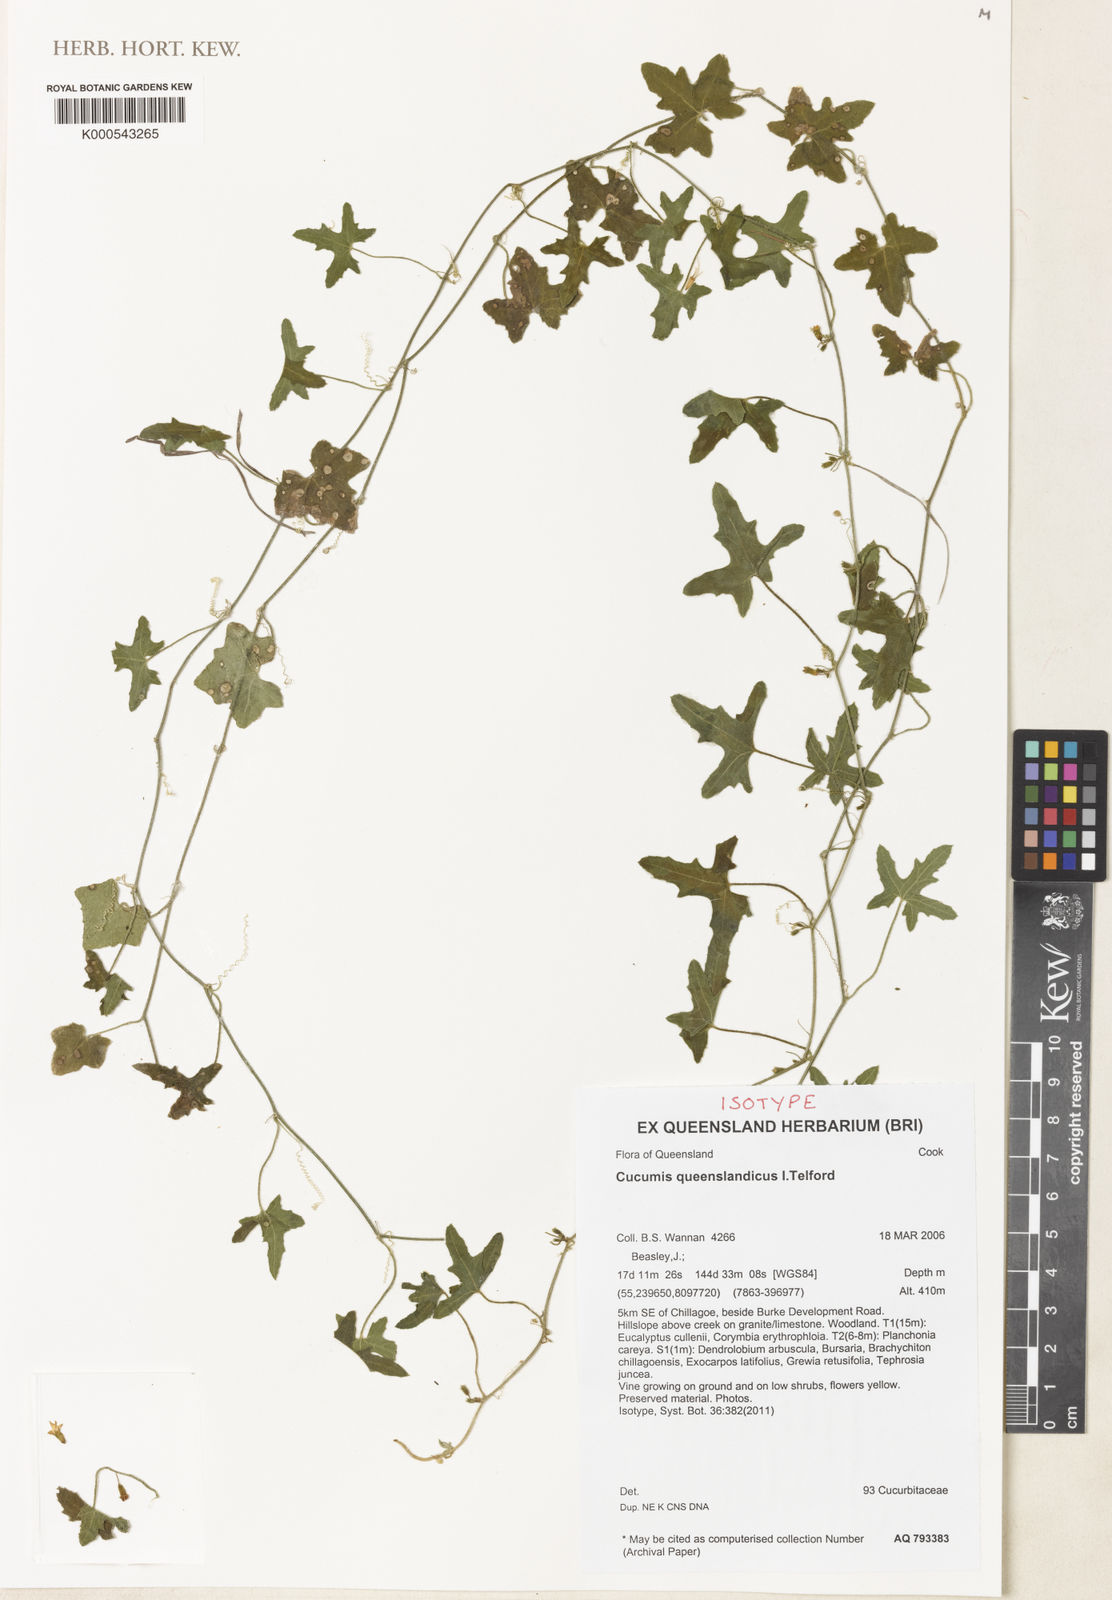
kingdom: Plantae
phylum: Tracheophyta
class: Magnoliopsida
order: Cucurbitales
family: Cucurbitaceae
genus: Cucumis
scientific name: Cucumis queenslandicus
